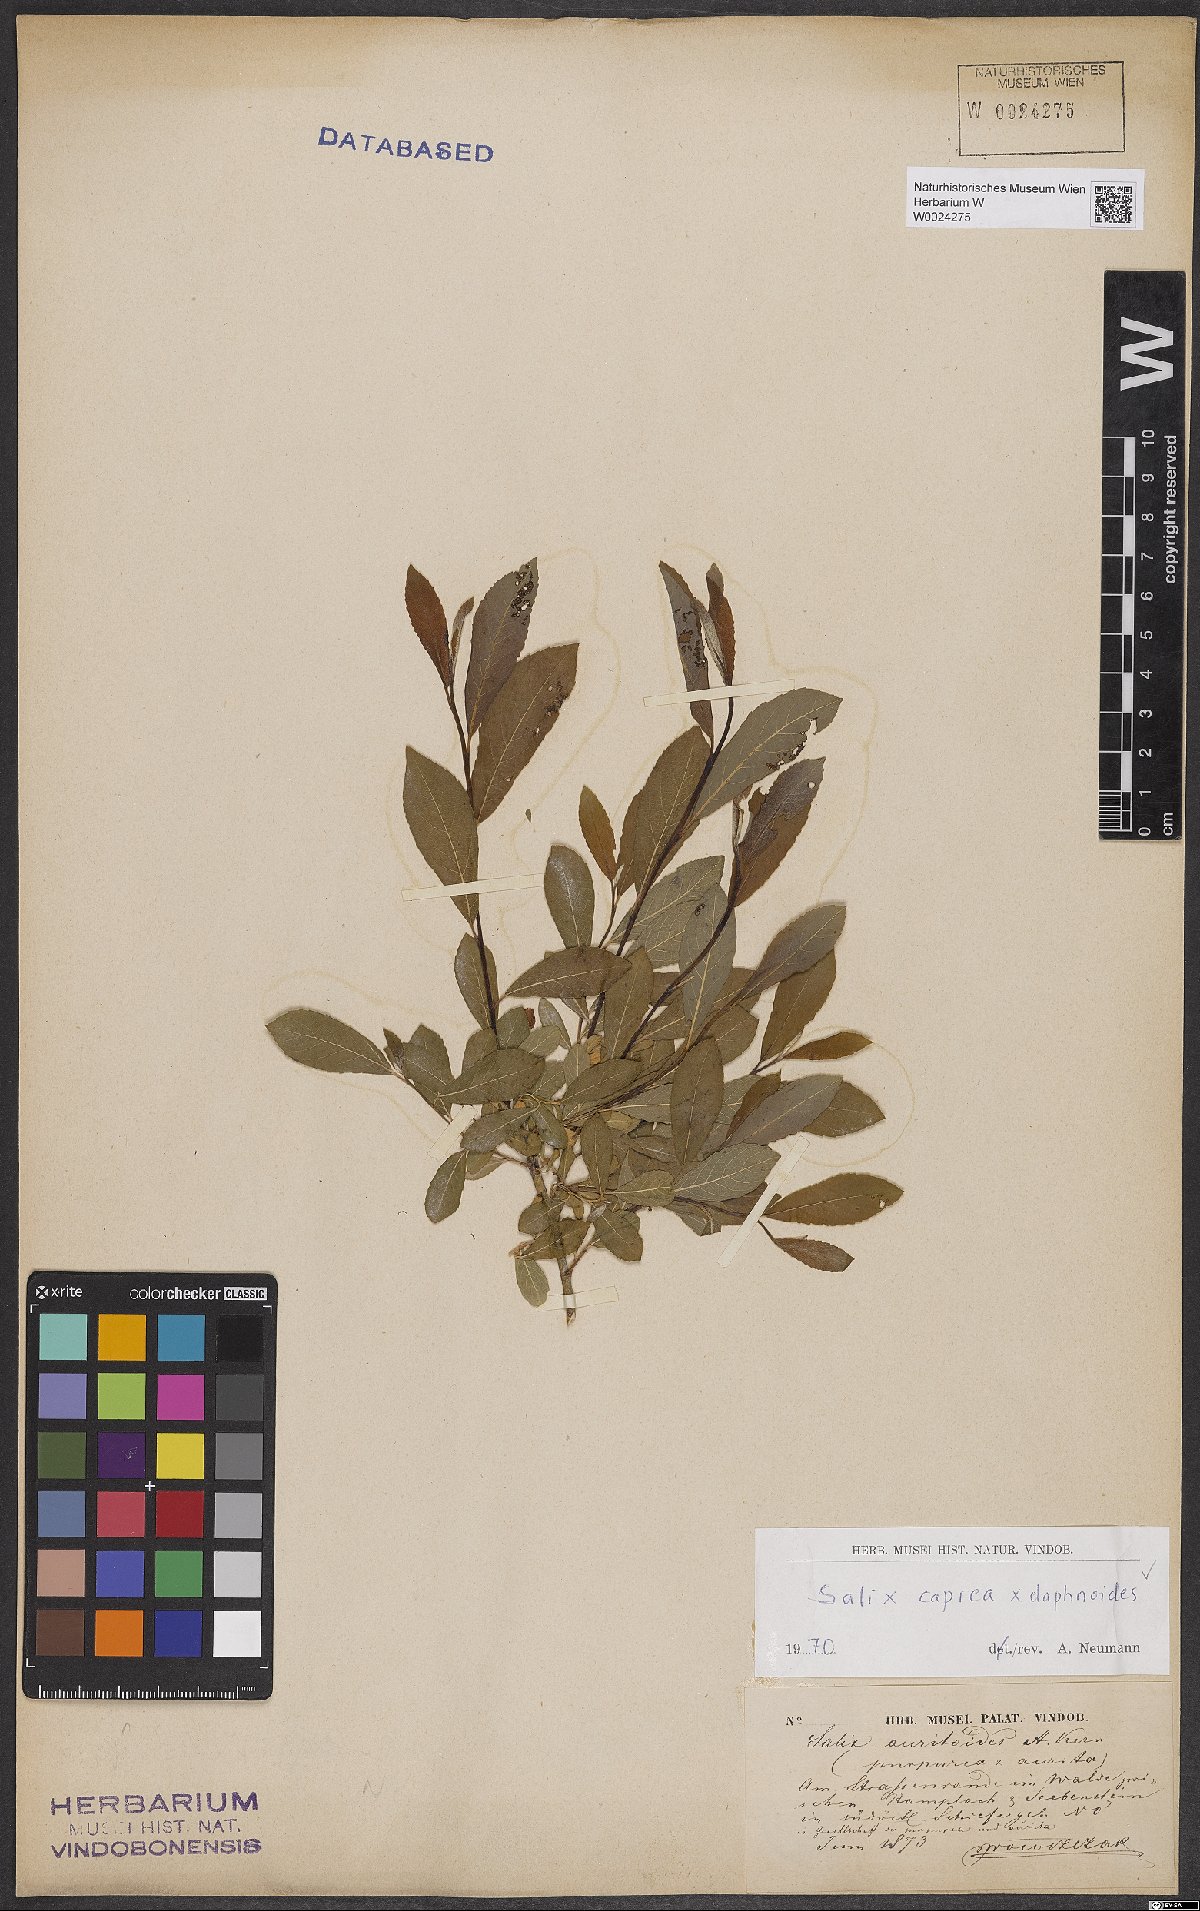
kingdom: Plantae
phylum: Tracheophyta
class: Magnoliopsida
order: Malpighiales
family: Salicaceae
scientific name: Salicaceae
